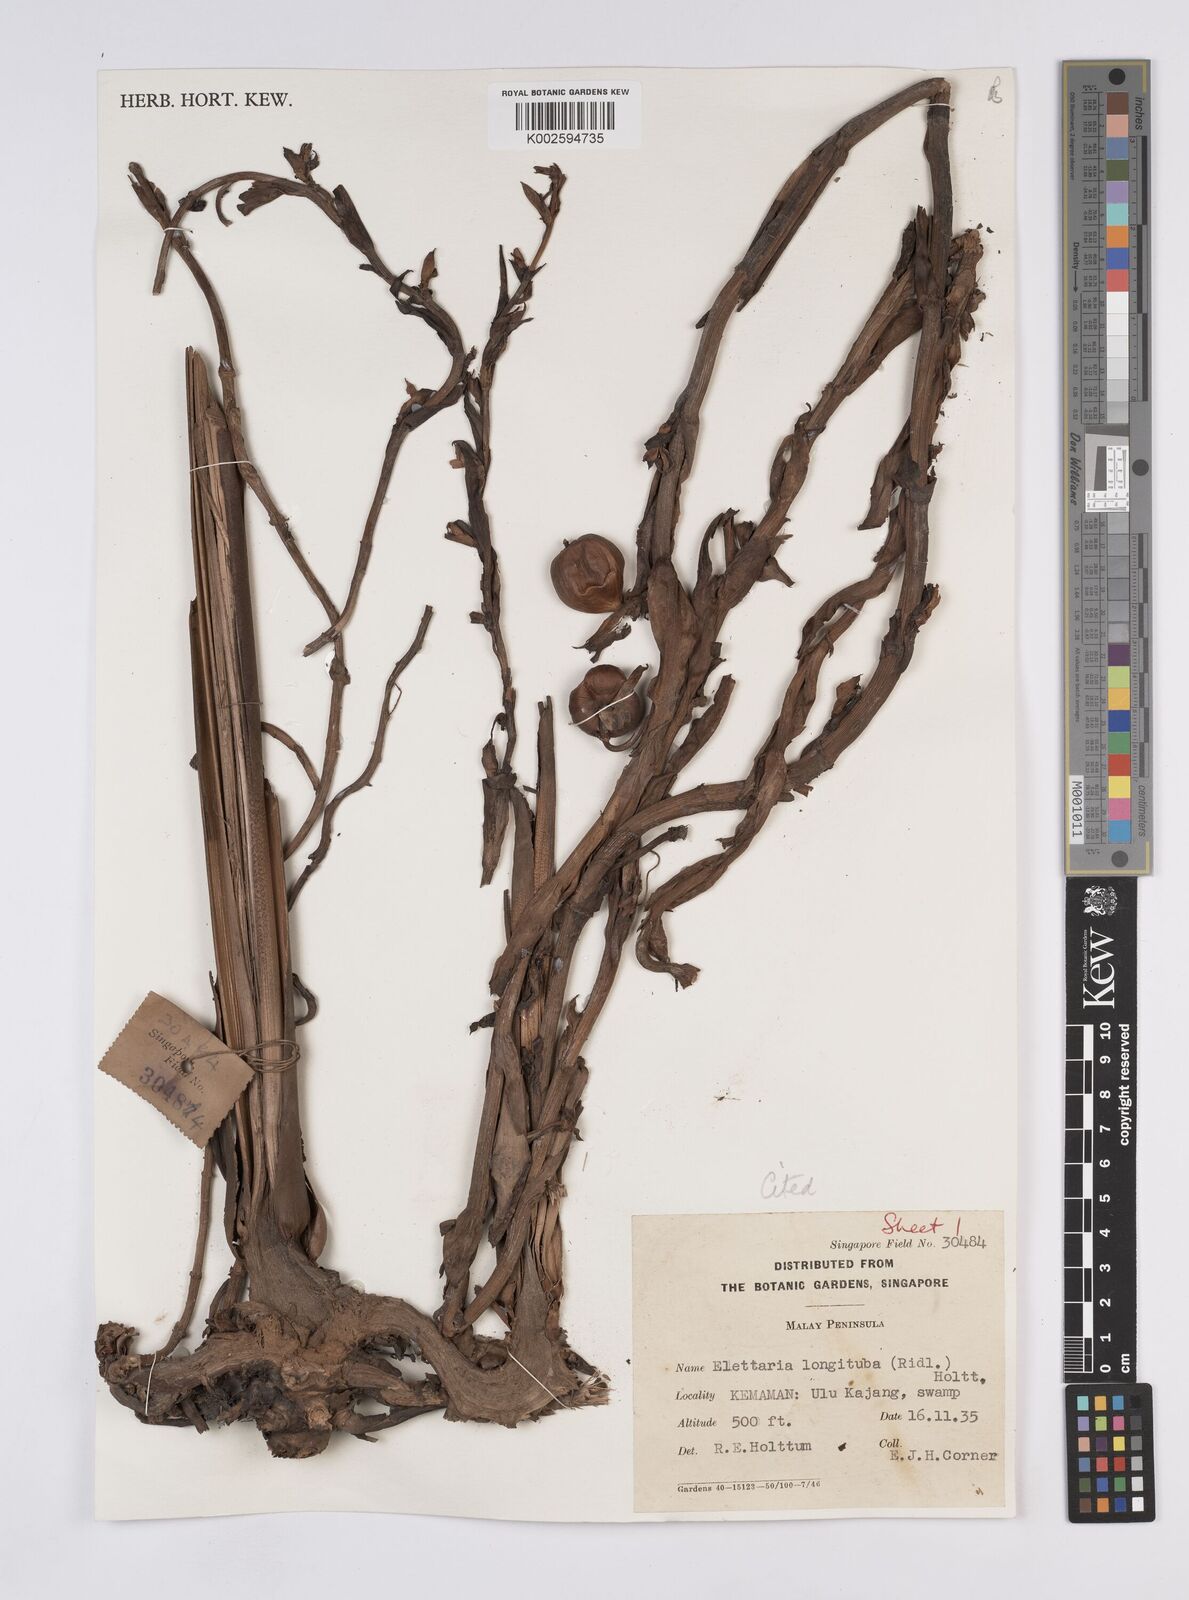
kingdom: Plantae
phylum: Tracheophyta
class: Liliopsida
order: Zingiberales
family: Zingiberaceae
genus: Sulettaria
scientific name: Sulettaria longituba
